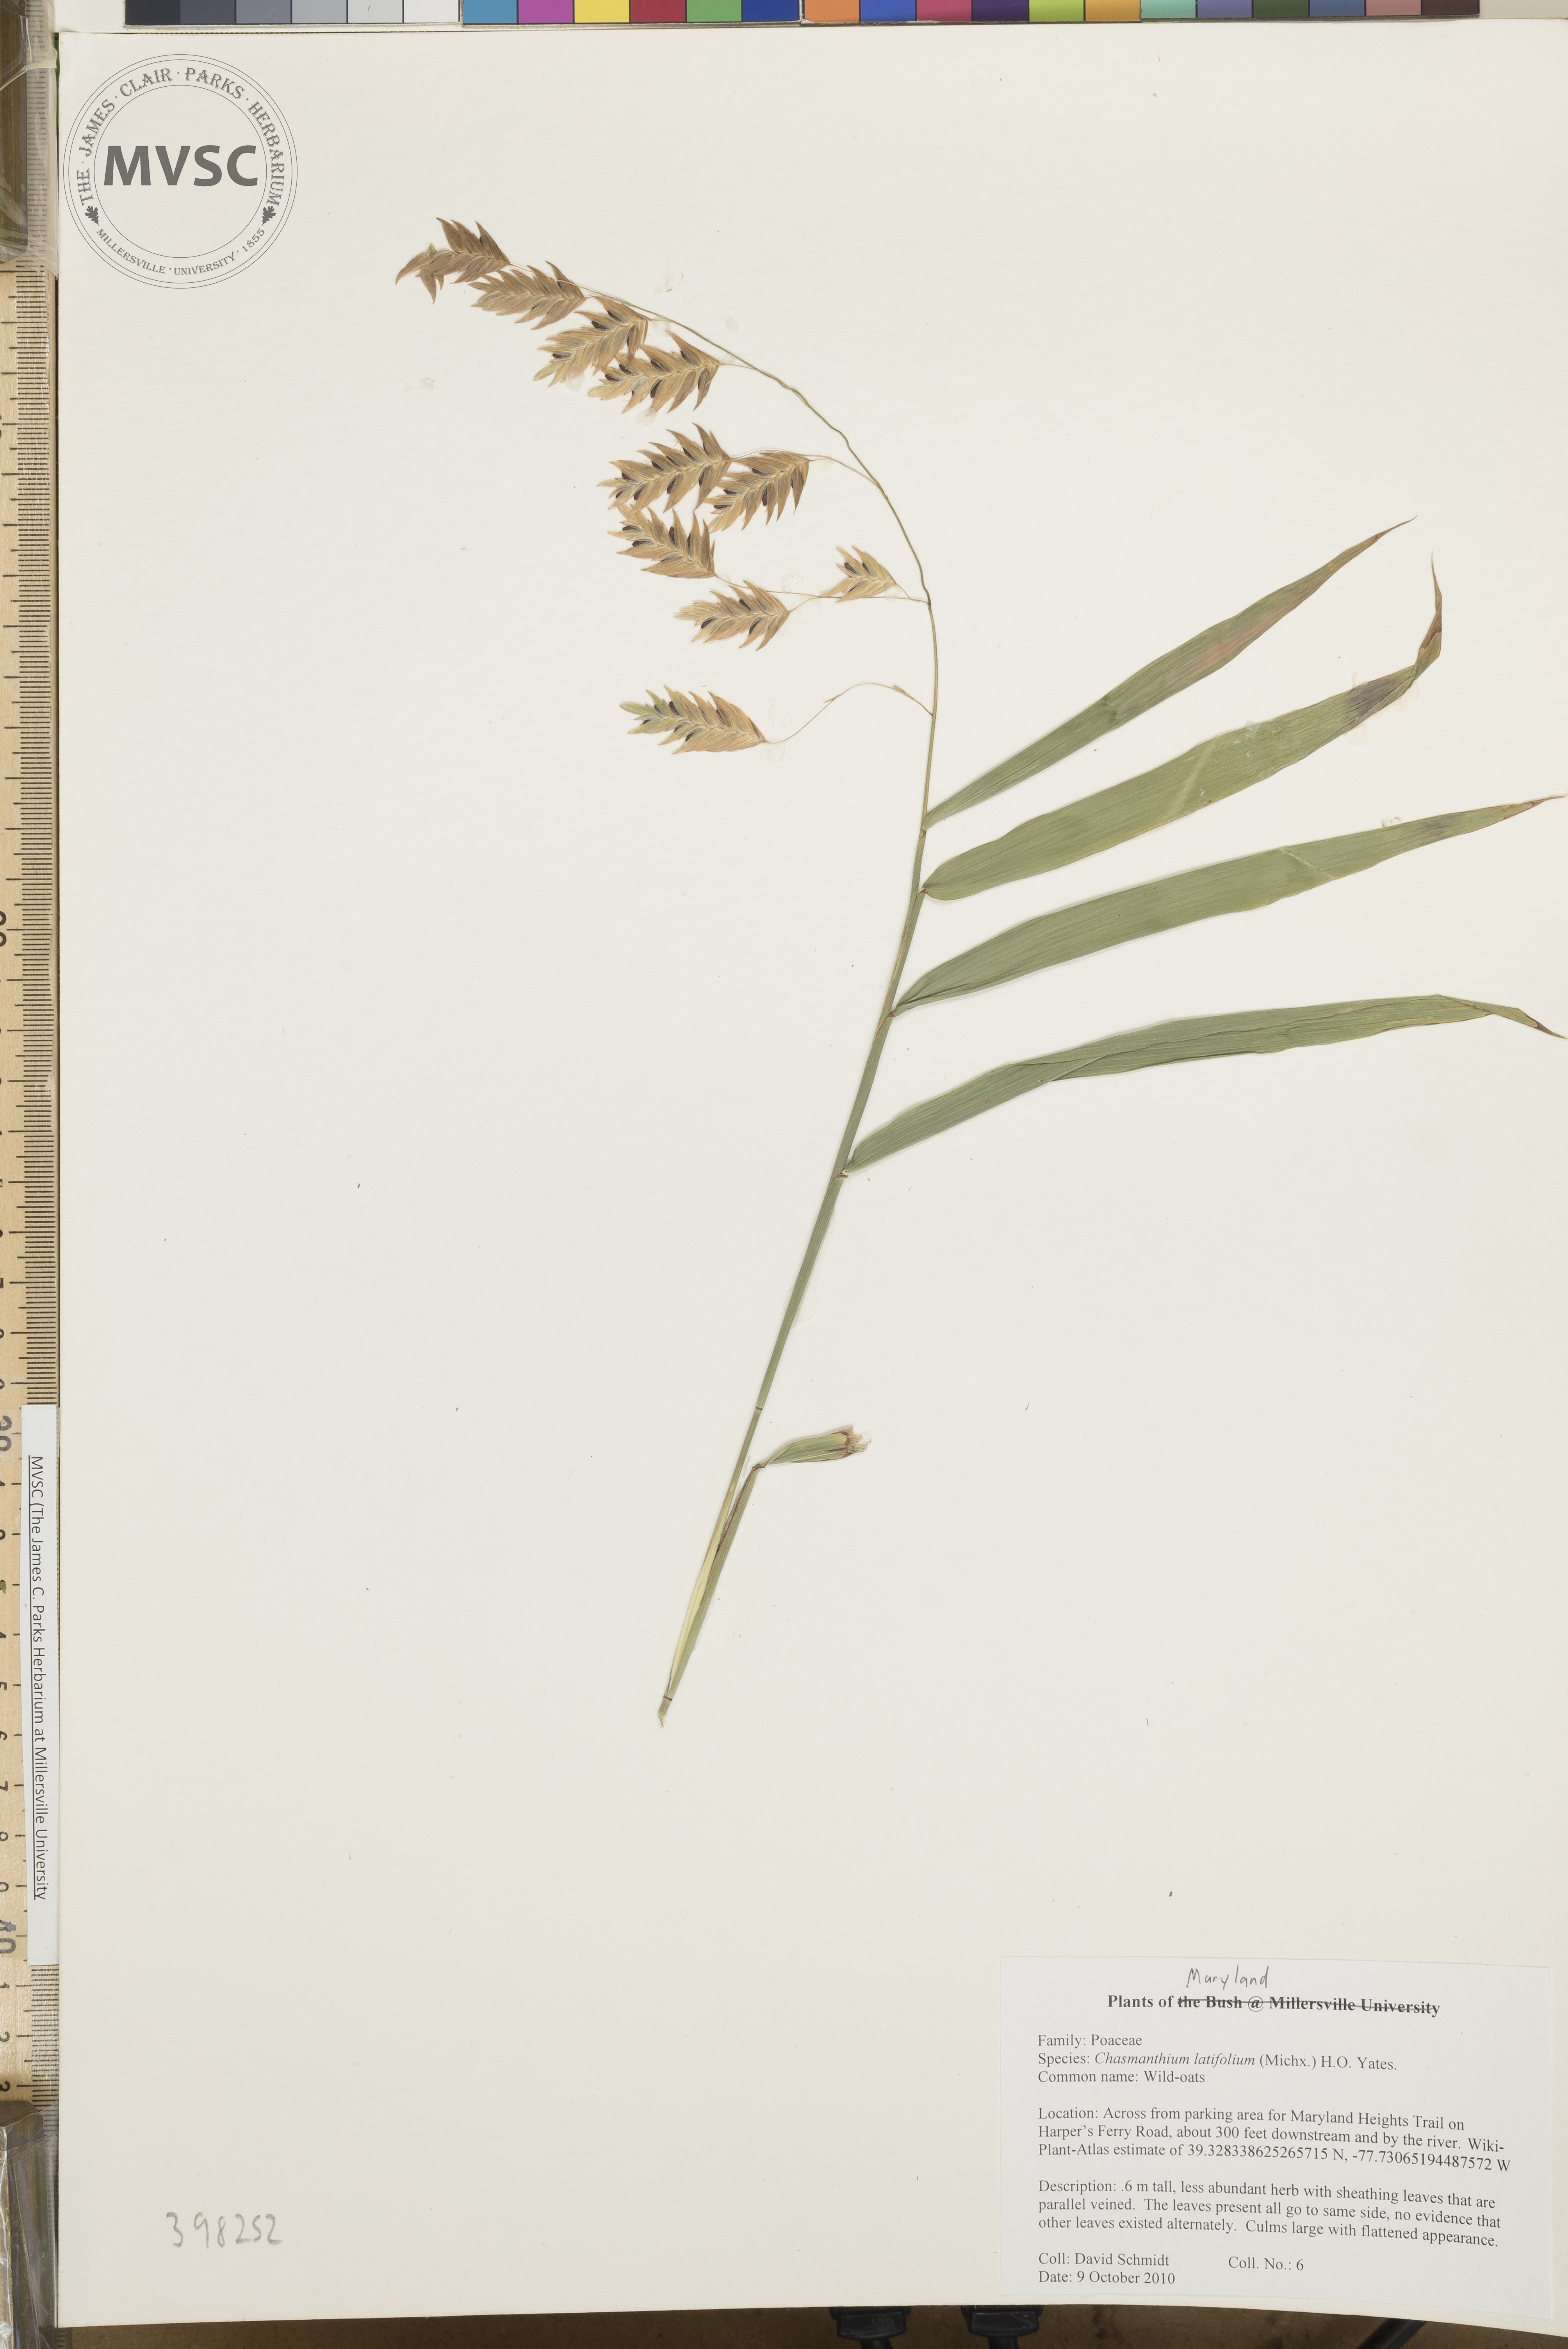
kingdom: Plantae
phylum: Tracheophyta
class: Liliopsida
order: Poales
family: Poaceae
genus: Chasmanthium
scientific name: Chasmanthium latifolium
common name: Sea-oats
